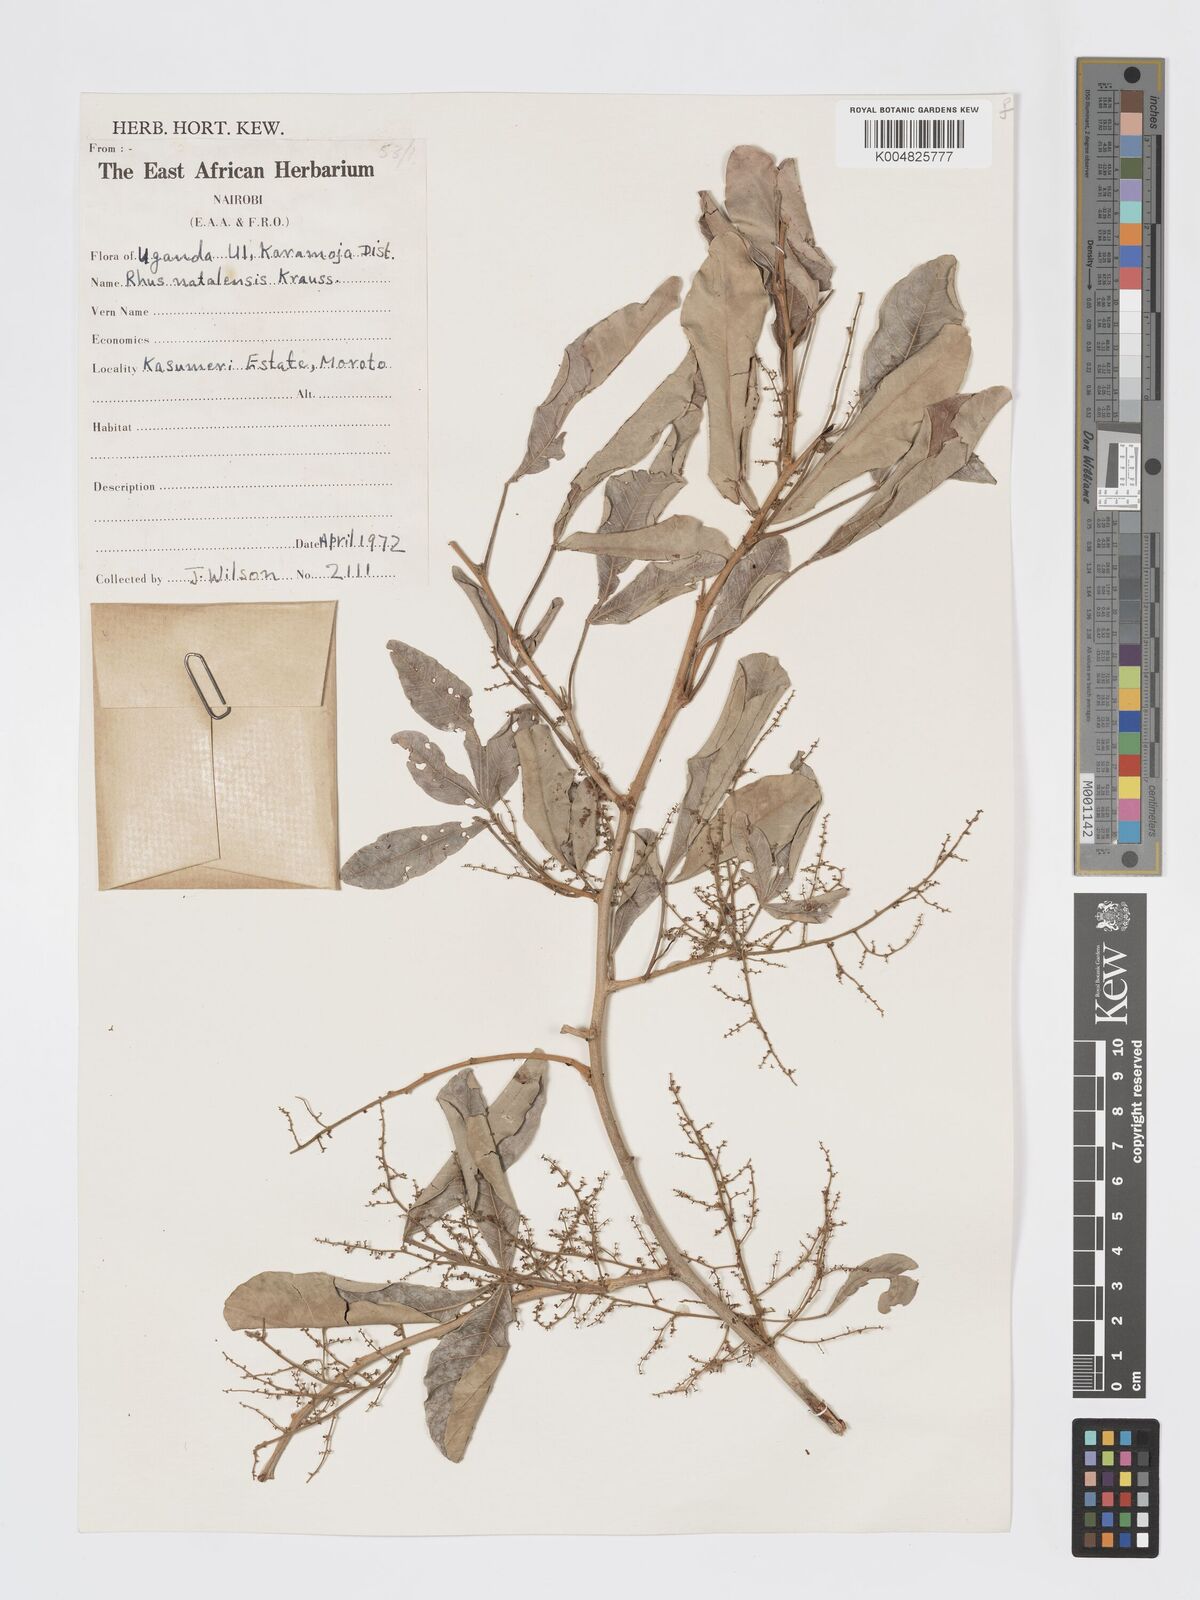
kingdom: Plantae
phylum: Tracheophyta
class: Magnoliopsida
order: Sapindales
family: Anacardiaceae
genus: Searsia
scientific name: Searsia natalensis
